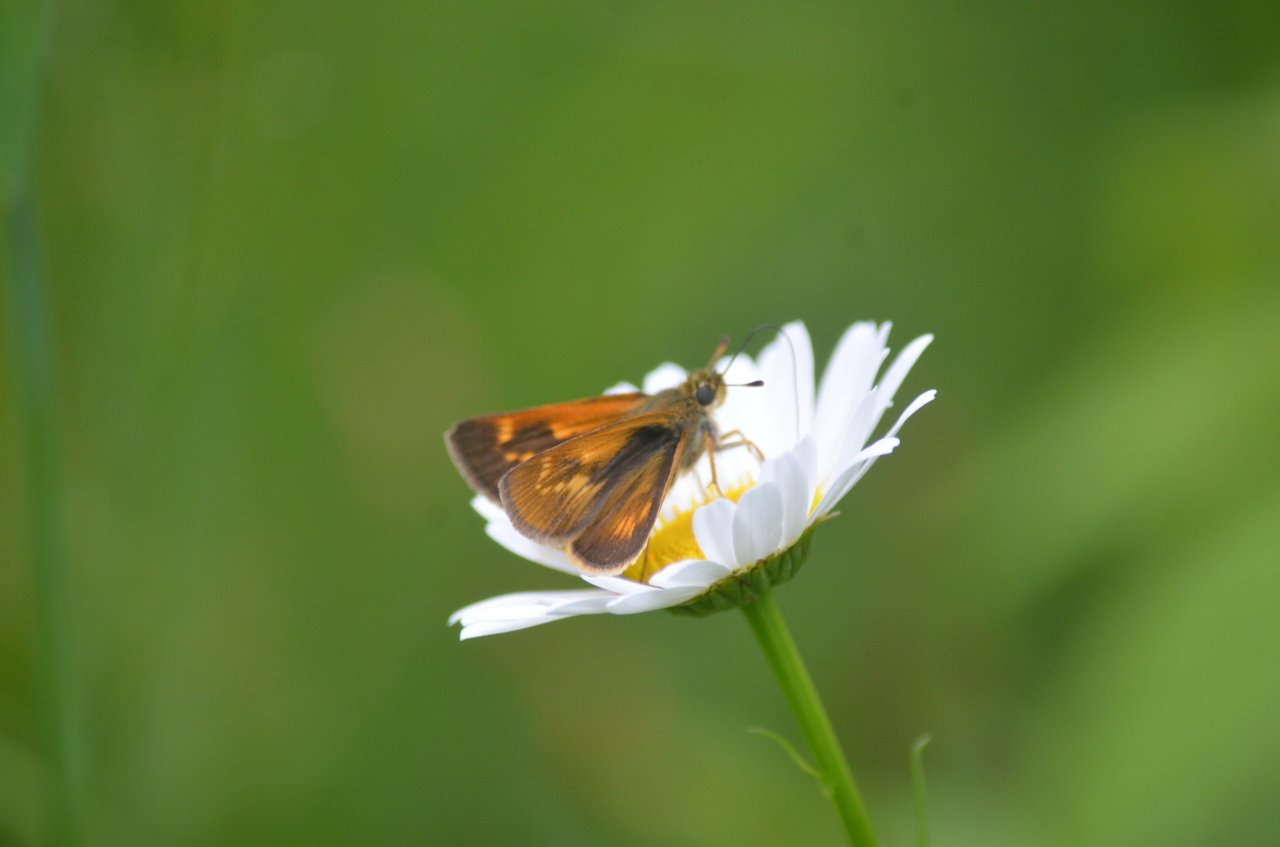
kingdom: Animalia
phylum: Arthropoda
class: Insecta
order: Lepidoptera
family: Hesperiidae
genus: Polites
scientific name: Polites
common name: Long Dash Skipper
